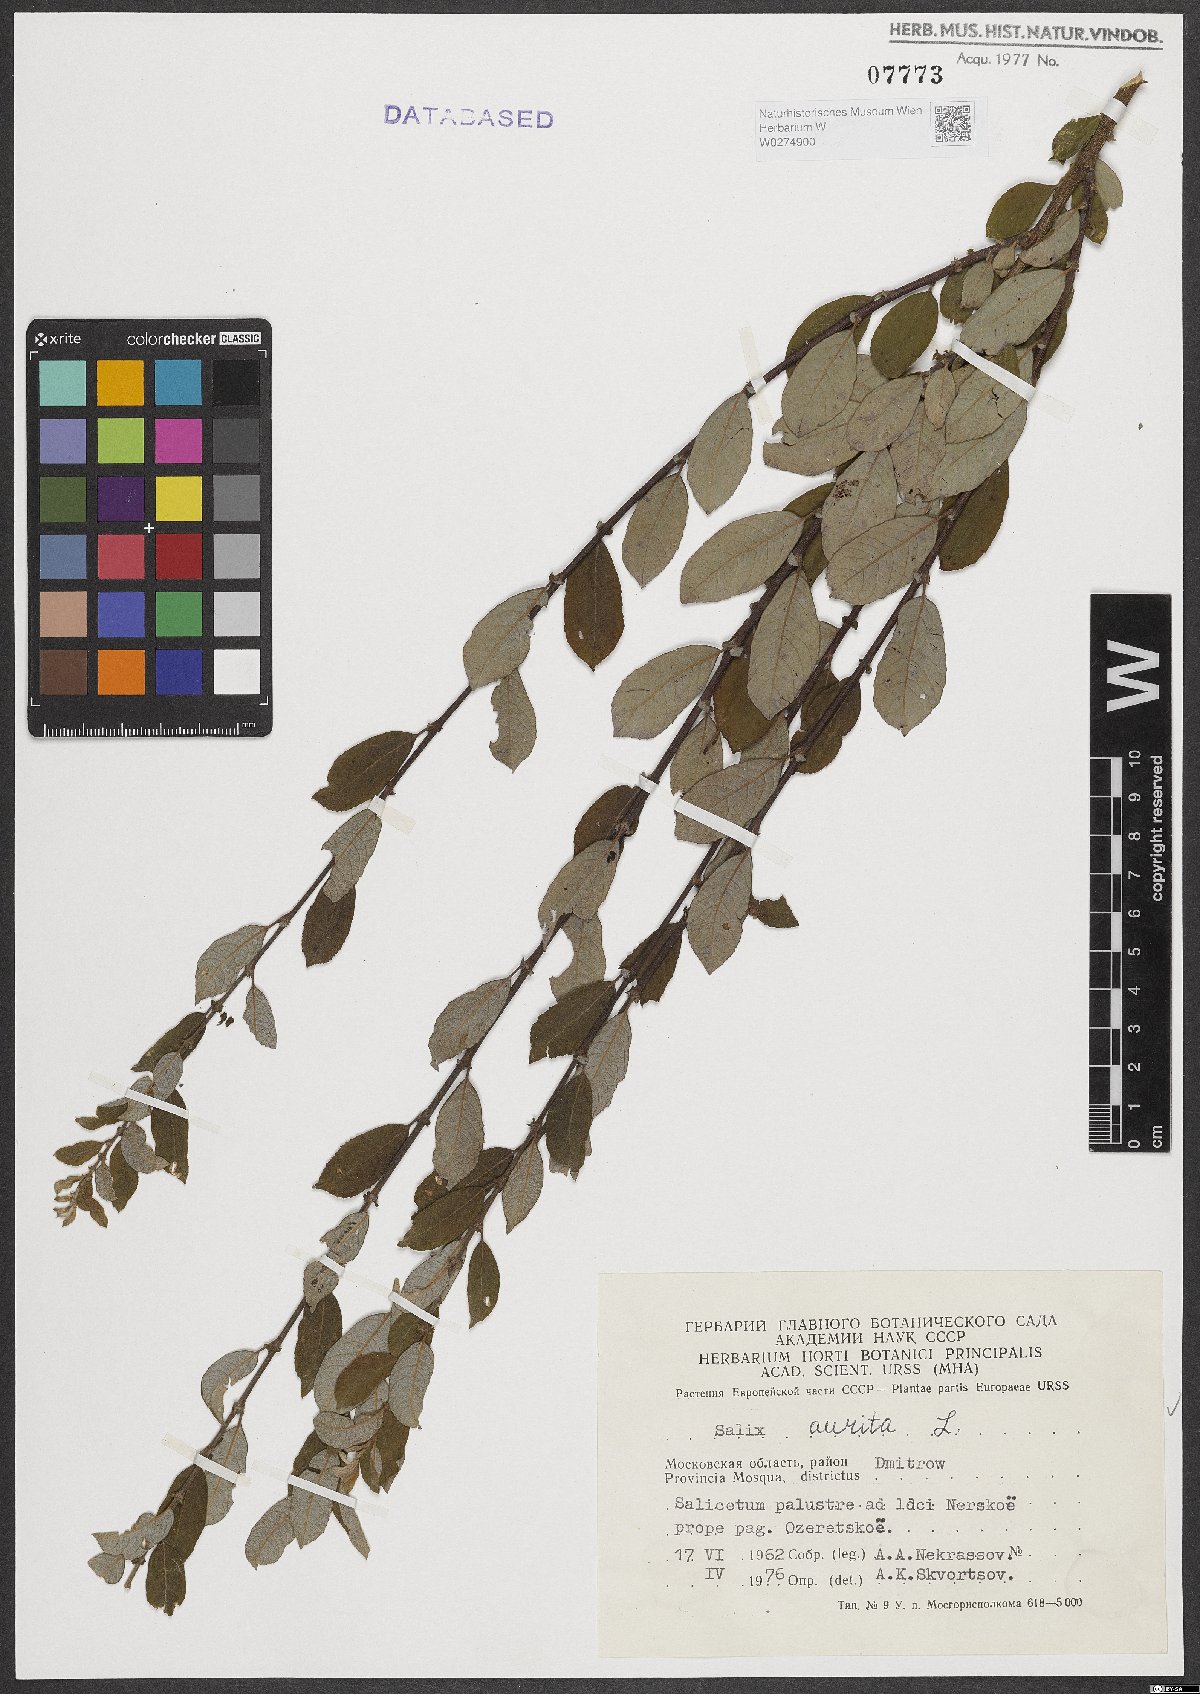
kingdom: Plantae
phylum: Tracheophyta
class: Magnoliopsida
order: Malpighiales
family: Salicaceae
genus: Salix
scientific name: Salix aurita
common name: Eared willow
